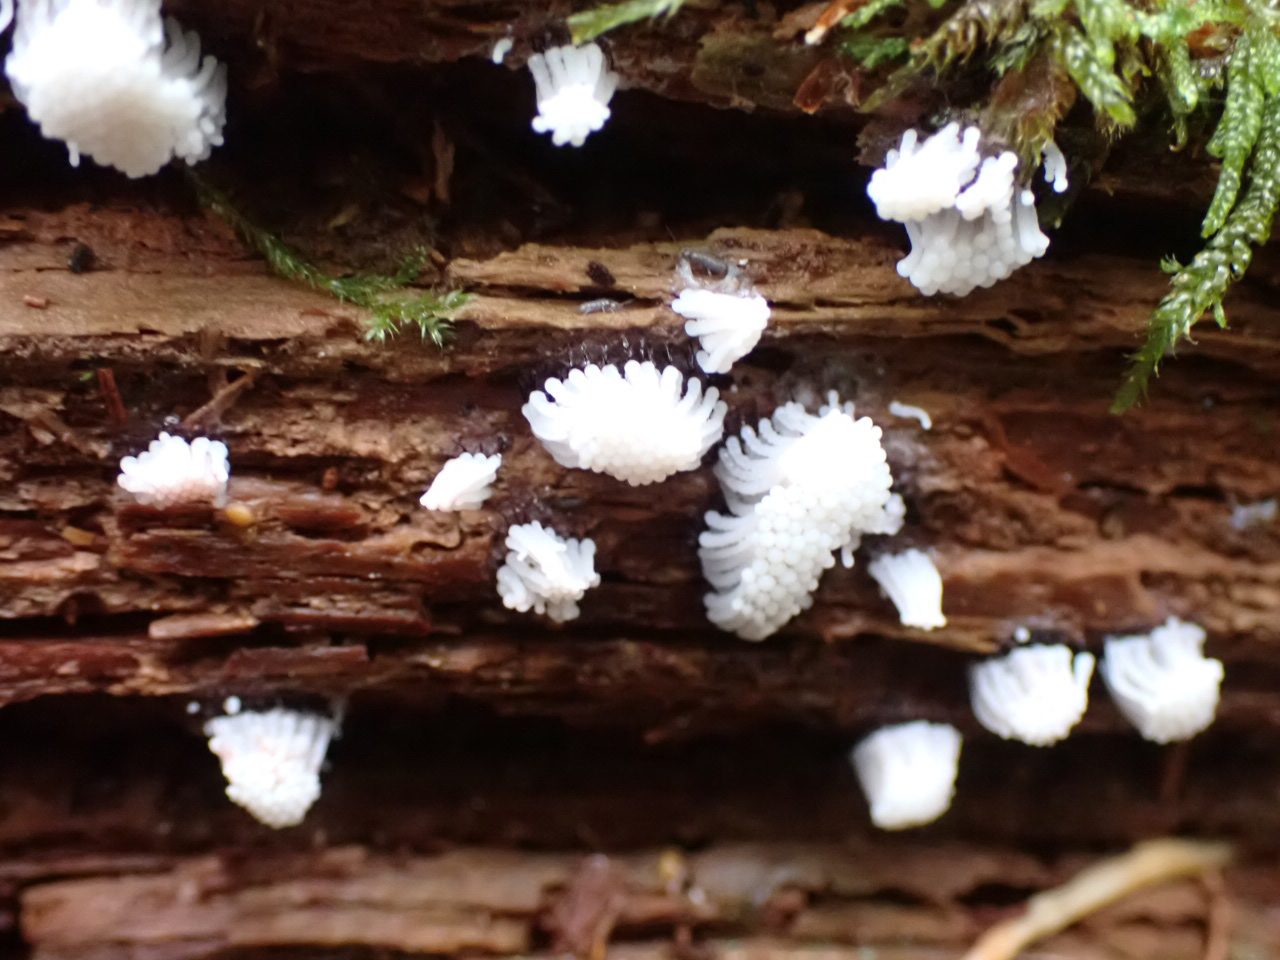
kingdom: Protozoa
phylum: Mycetozoa
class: Myxomycetes
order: Stemonitidales
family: Stemonitidaceae
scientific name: Stemonitidaceae
